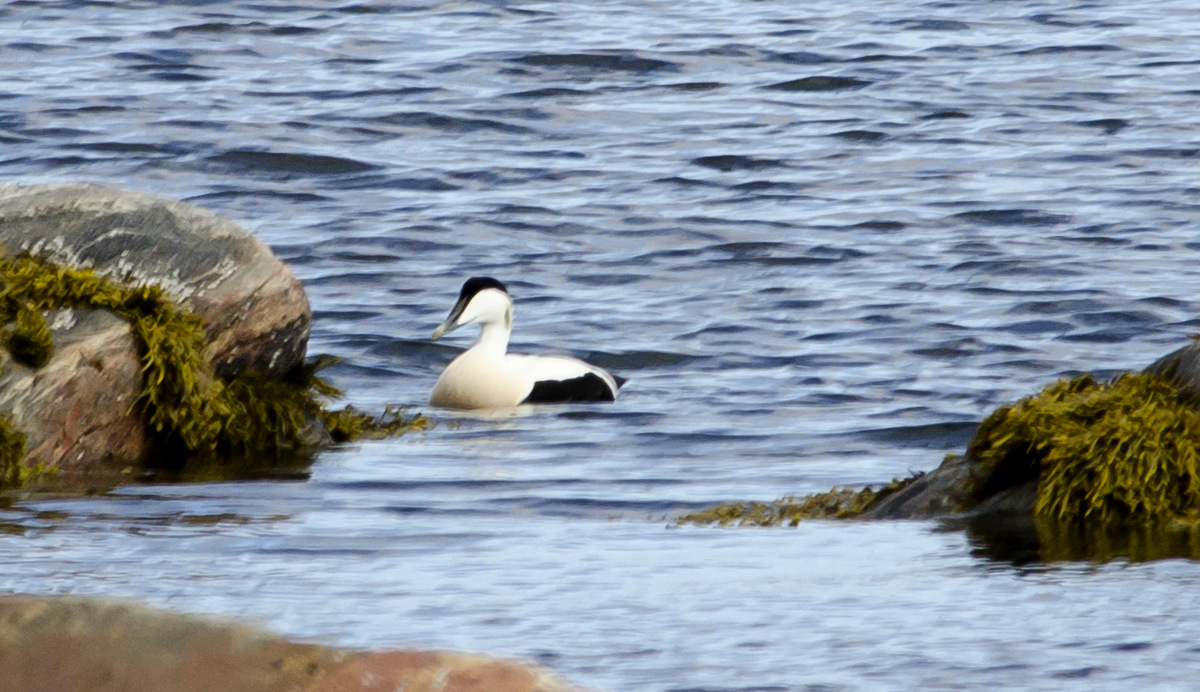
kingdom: Animalia
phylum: Chordata
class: Aves
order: Anseriformes
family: Anatidae
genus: Somateria
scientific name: Somateria mollissima
